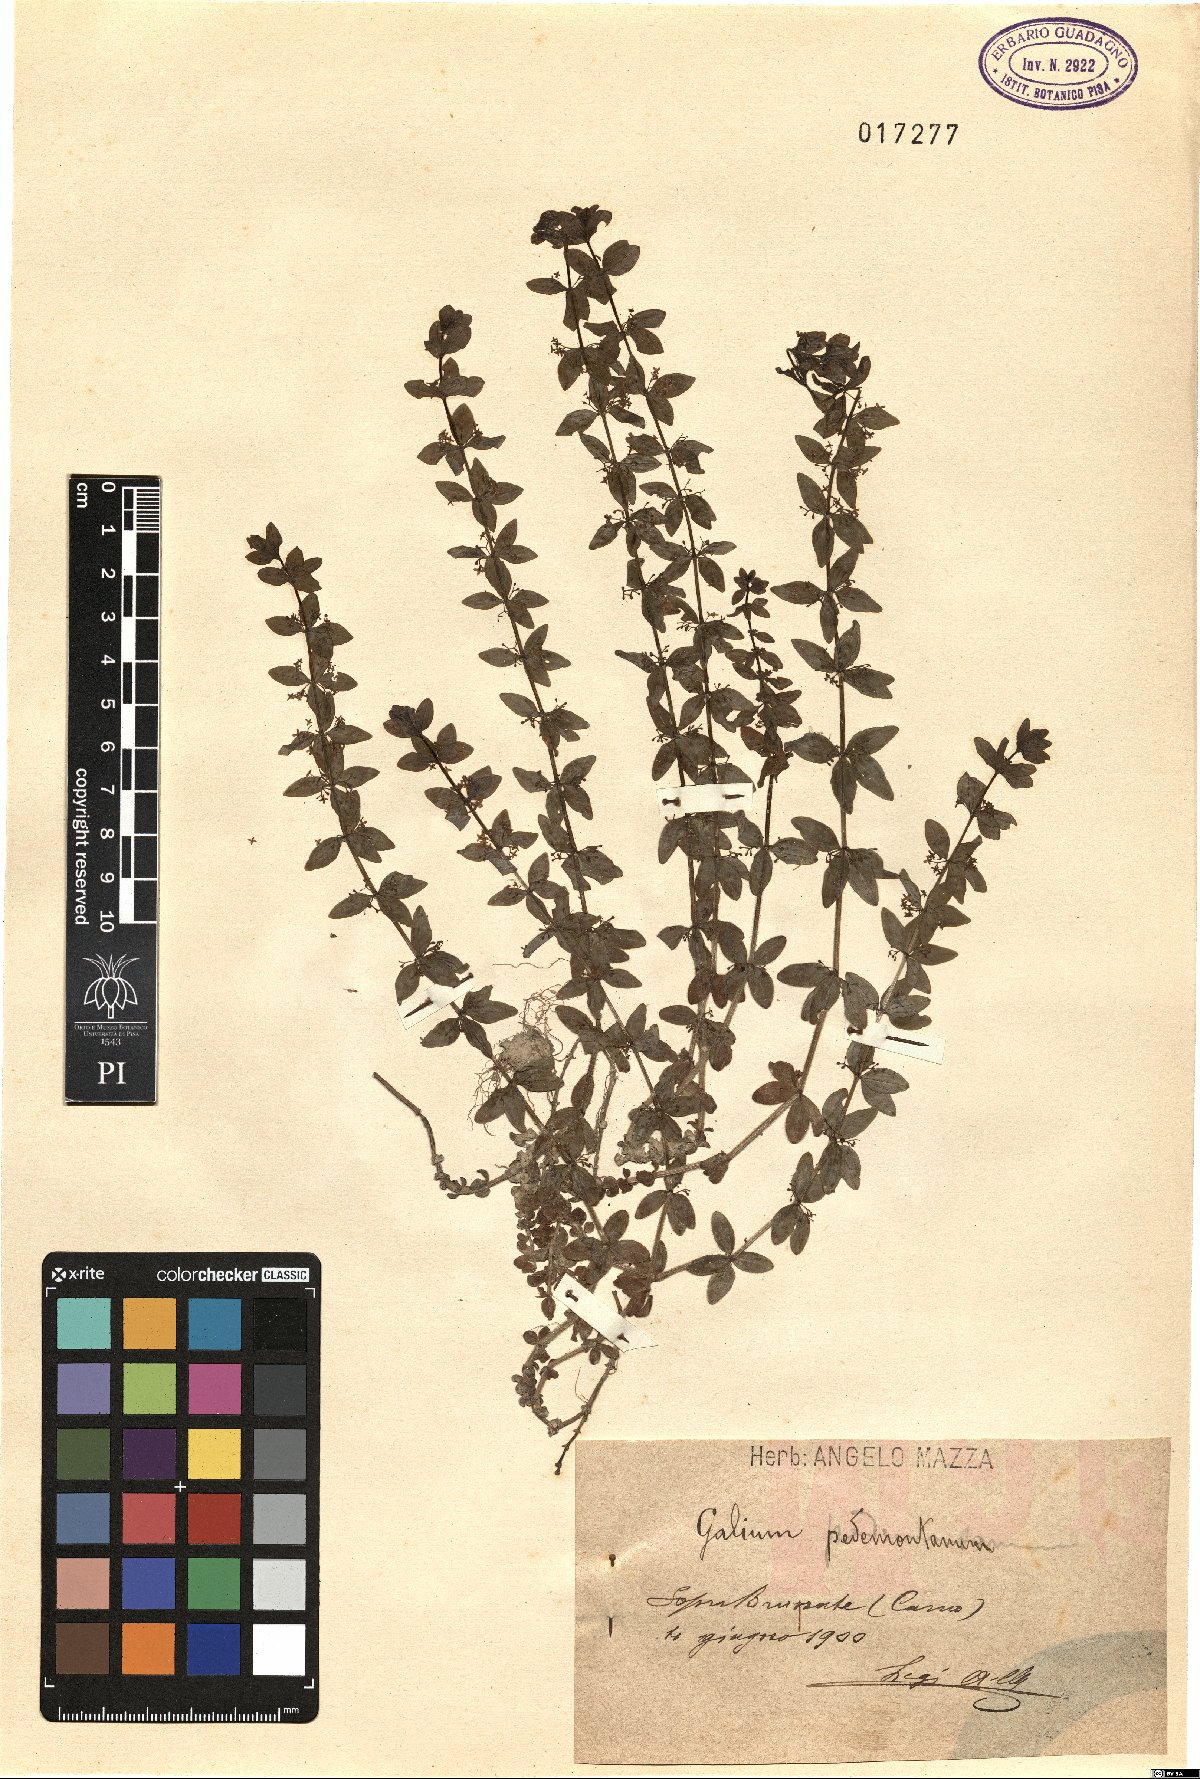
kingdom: Plantae
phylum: Tracheophyta
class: Magnoliopsida
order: Gentianales
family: Rubiaceae
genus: Cruciata
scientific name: Cruciata pedemontana
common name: Piedmont bedstraw
